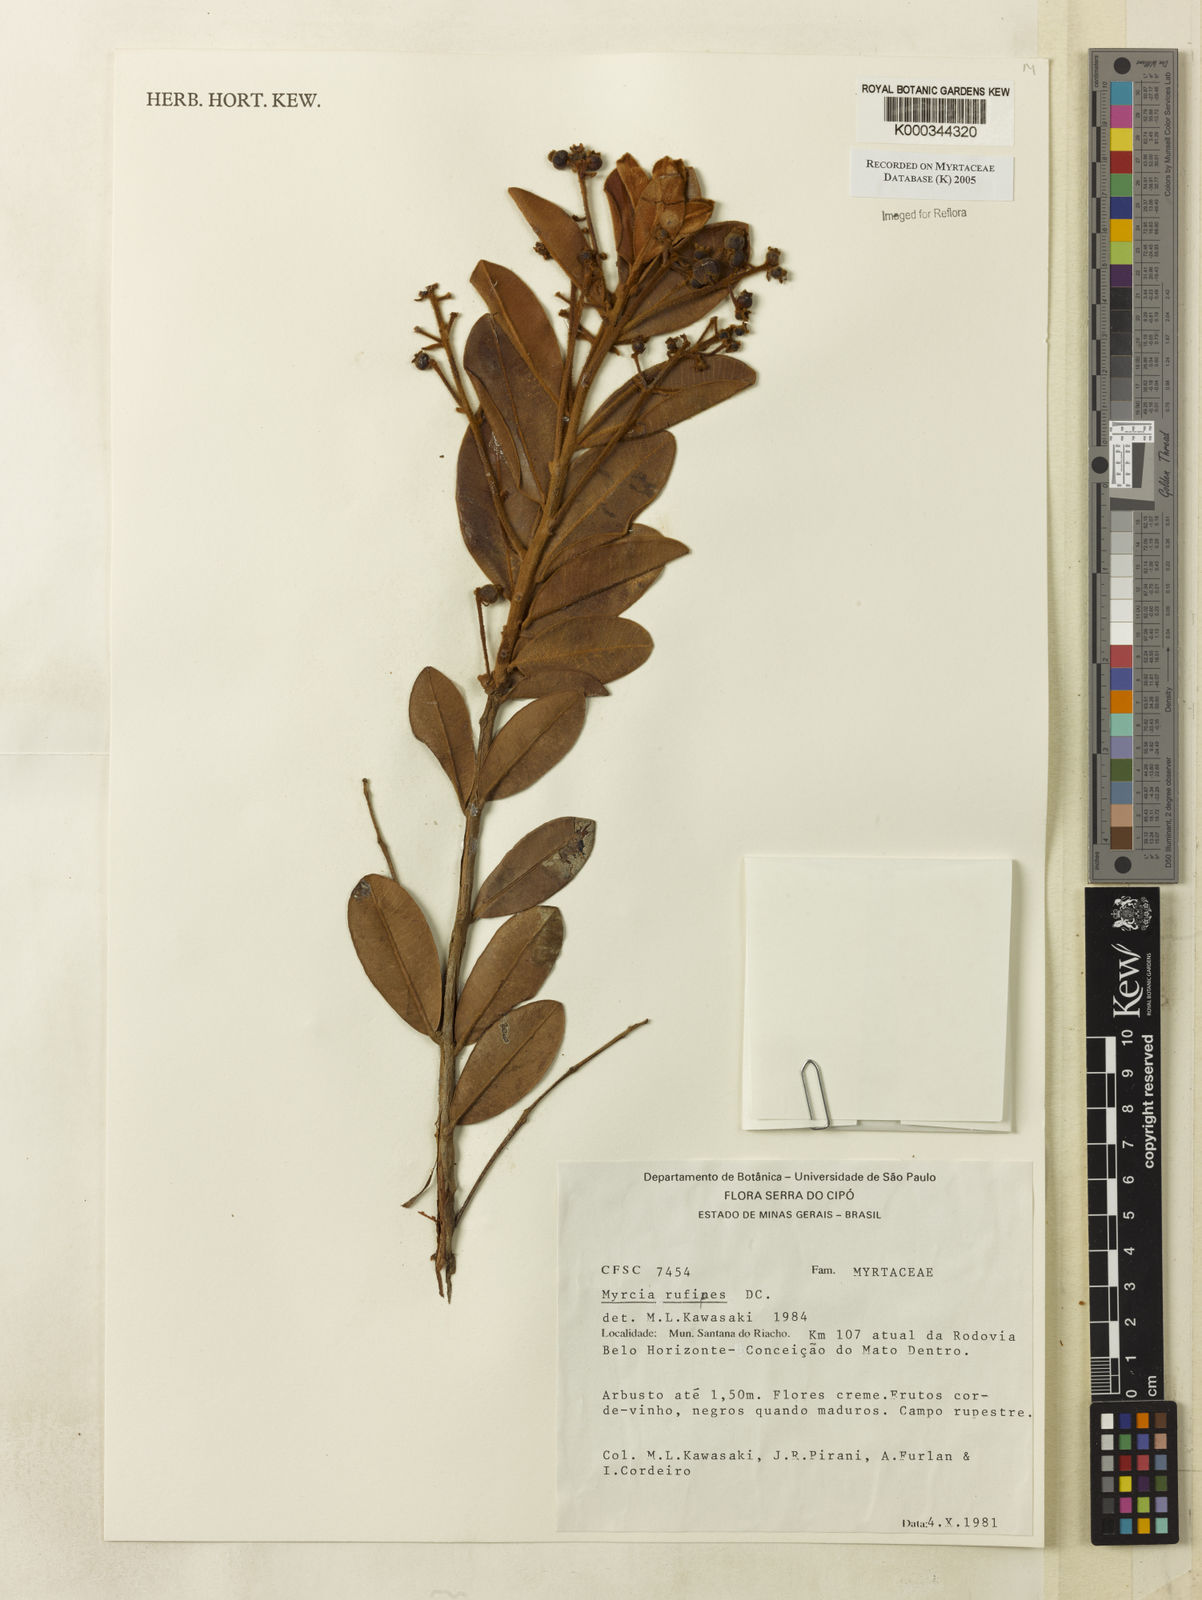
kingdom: Plantae
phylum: Tracheophyta
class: Magnoliopsida
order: Myrtales
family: Myrtaceae
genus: Myrcia
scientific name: Myrcia rufipes
